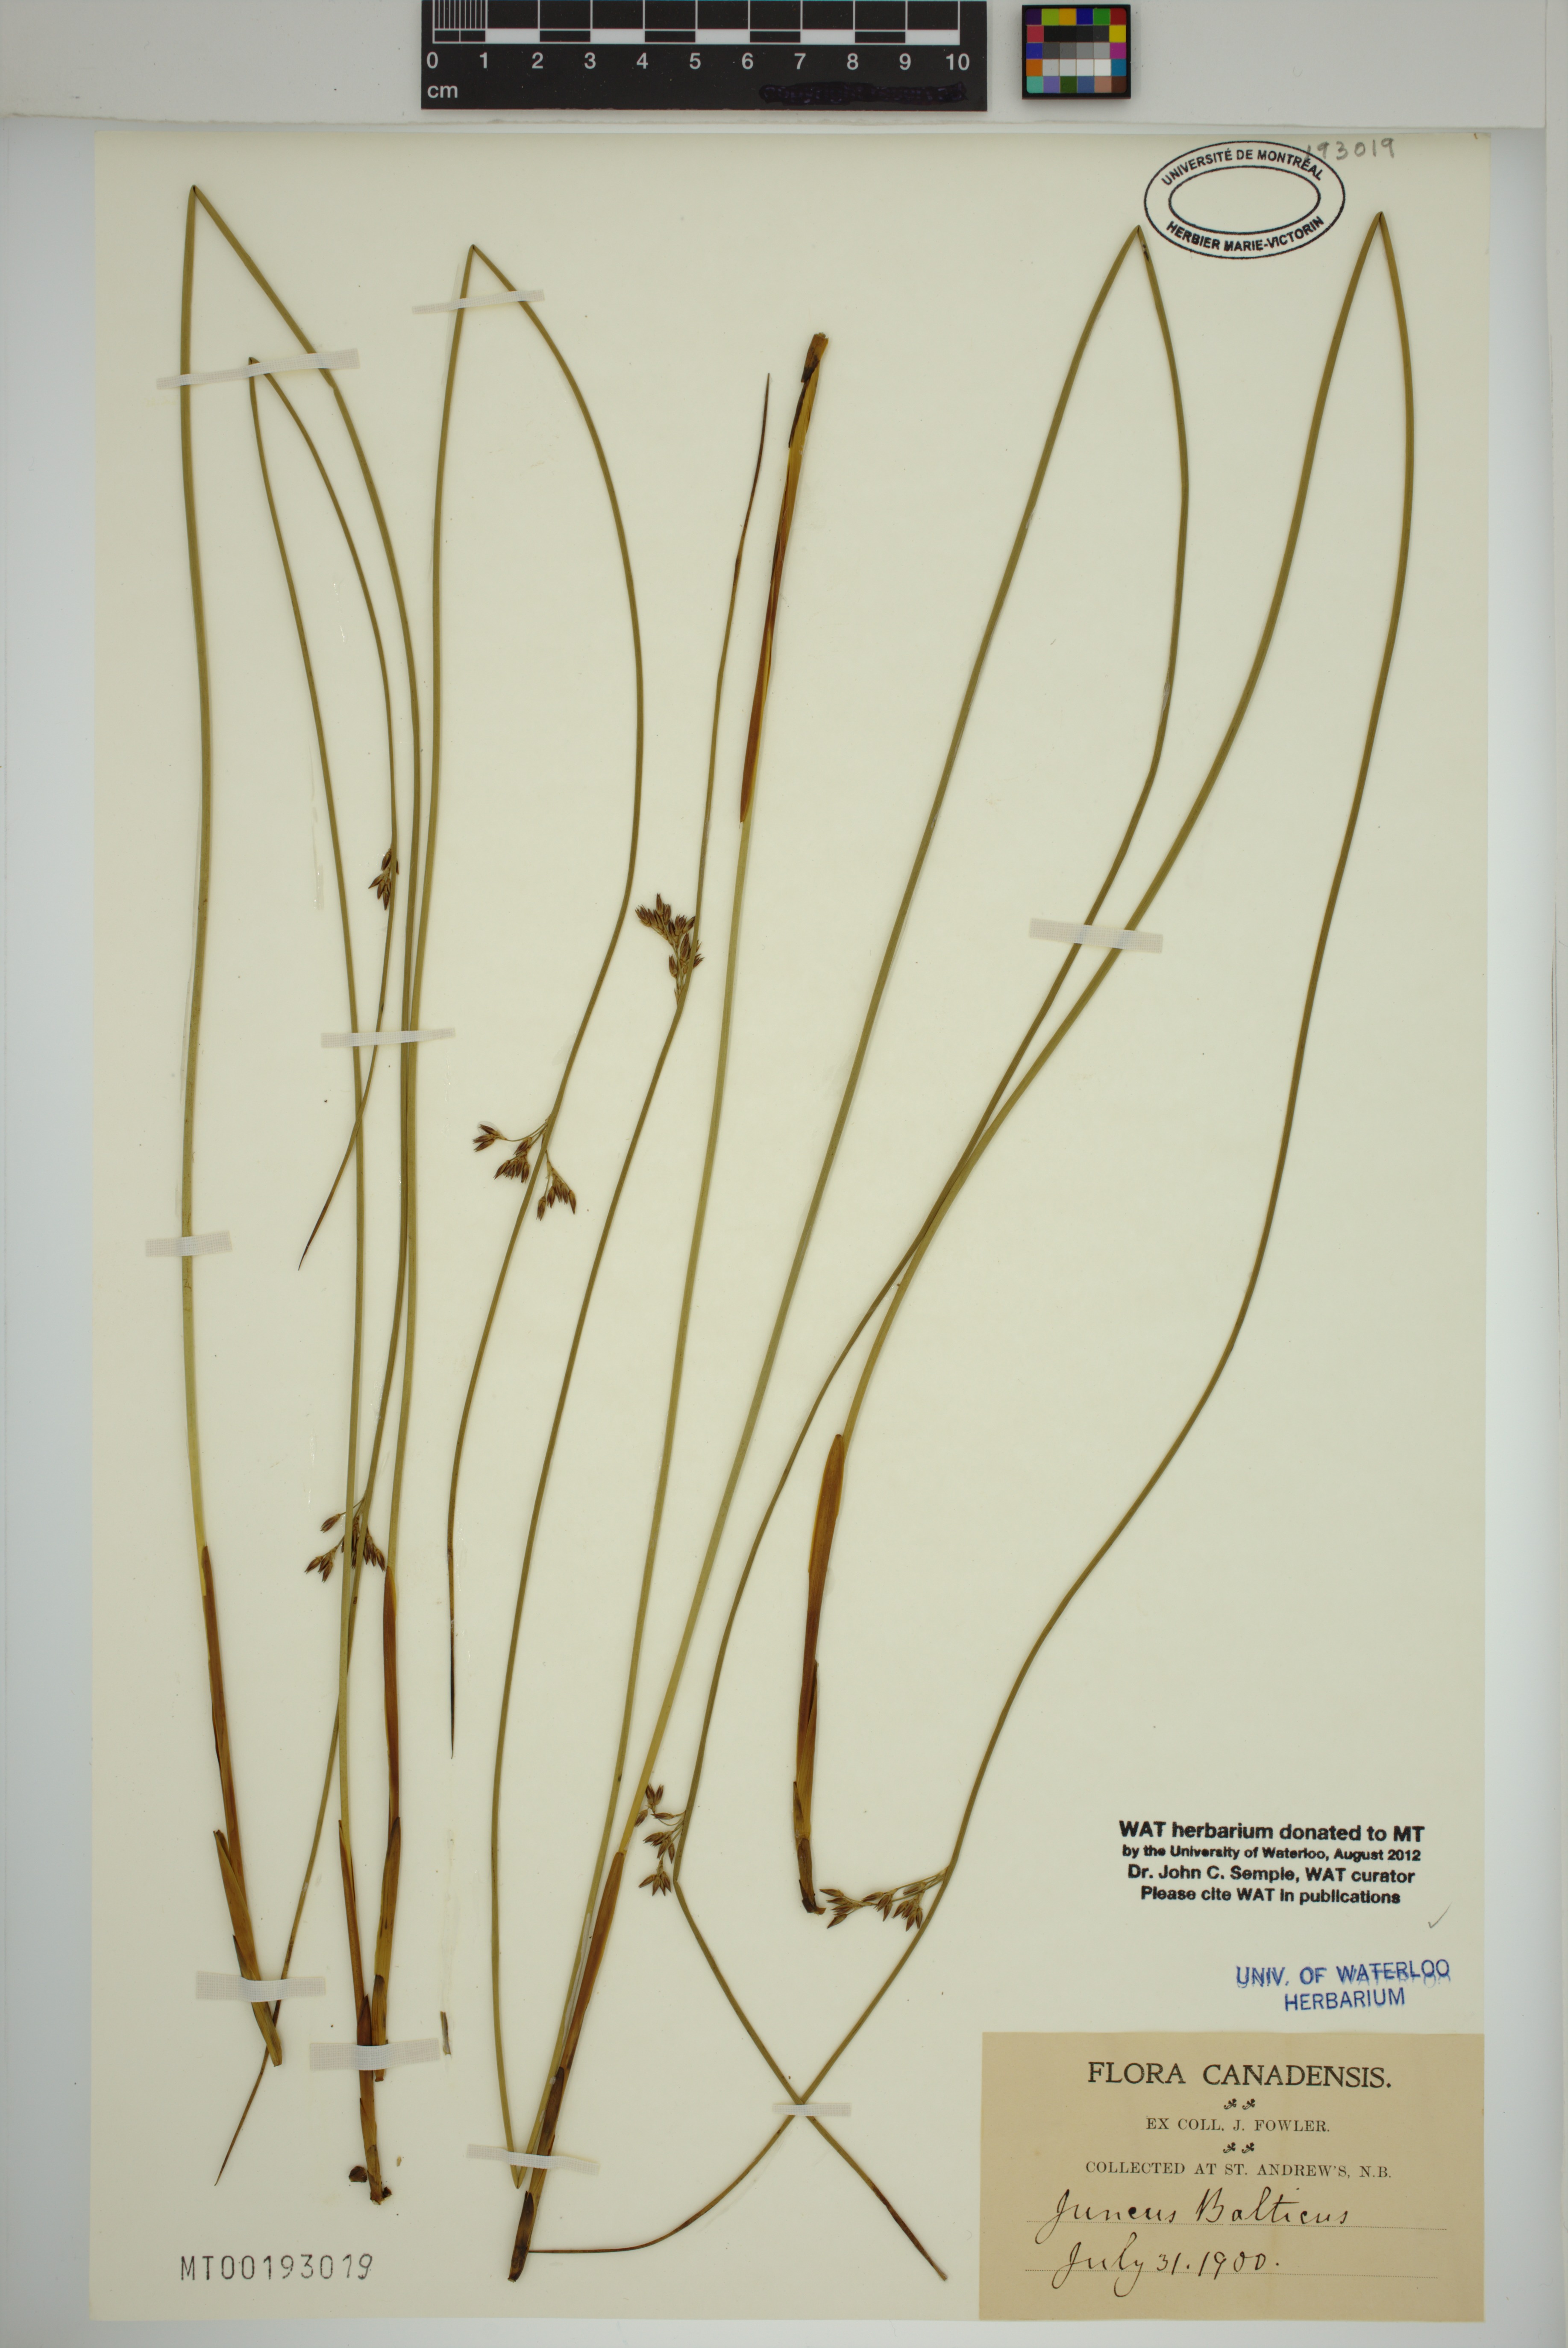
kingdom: Plantae
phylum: Tracheophyta
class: Liliopsida
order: Poales
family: Juncaceae
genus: Juncus
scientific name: Juncus balticus
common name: Baltic rush
